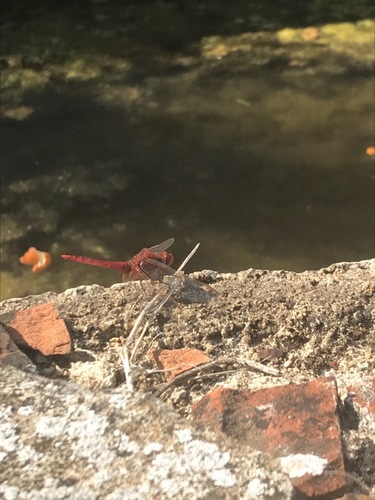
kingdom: Animalia
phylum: Arthropoda
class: Insecta
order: Odonata
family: Libellulidae
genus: Crocothemis
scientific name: Crocothemis erythraea
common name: Scarlet dragonfly
